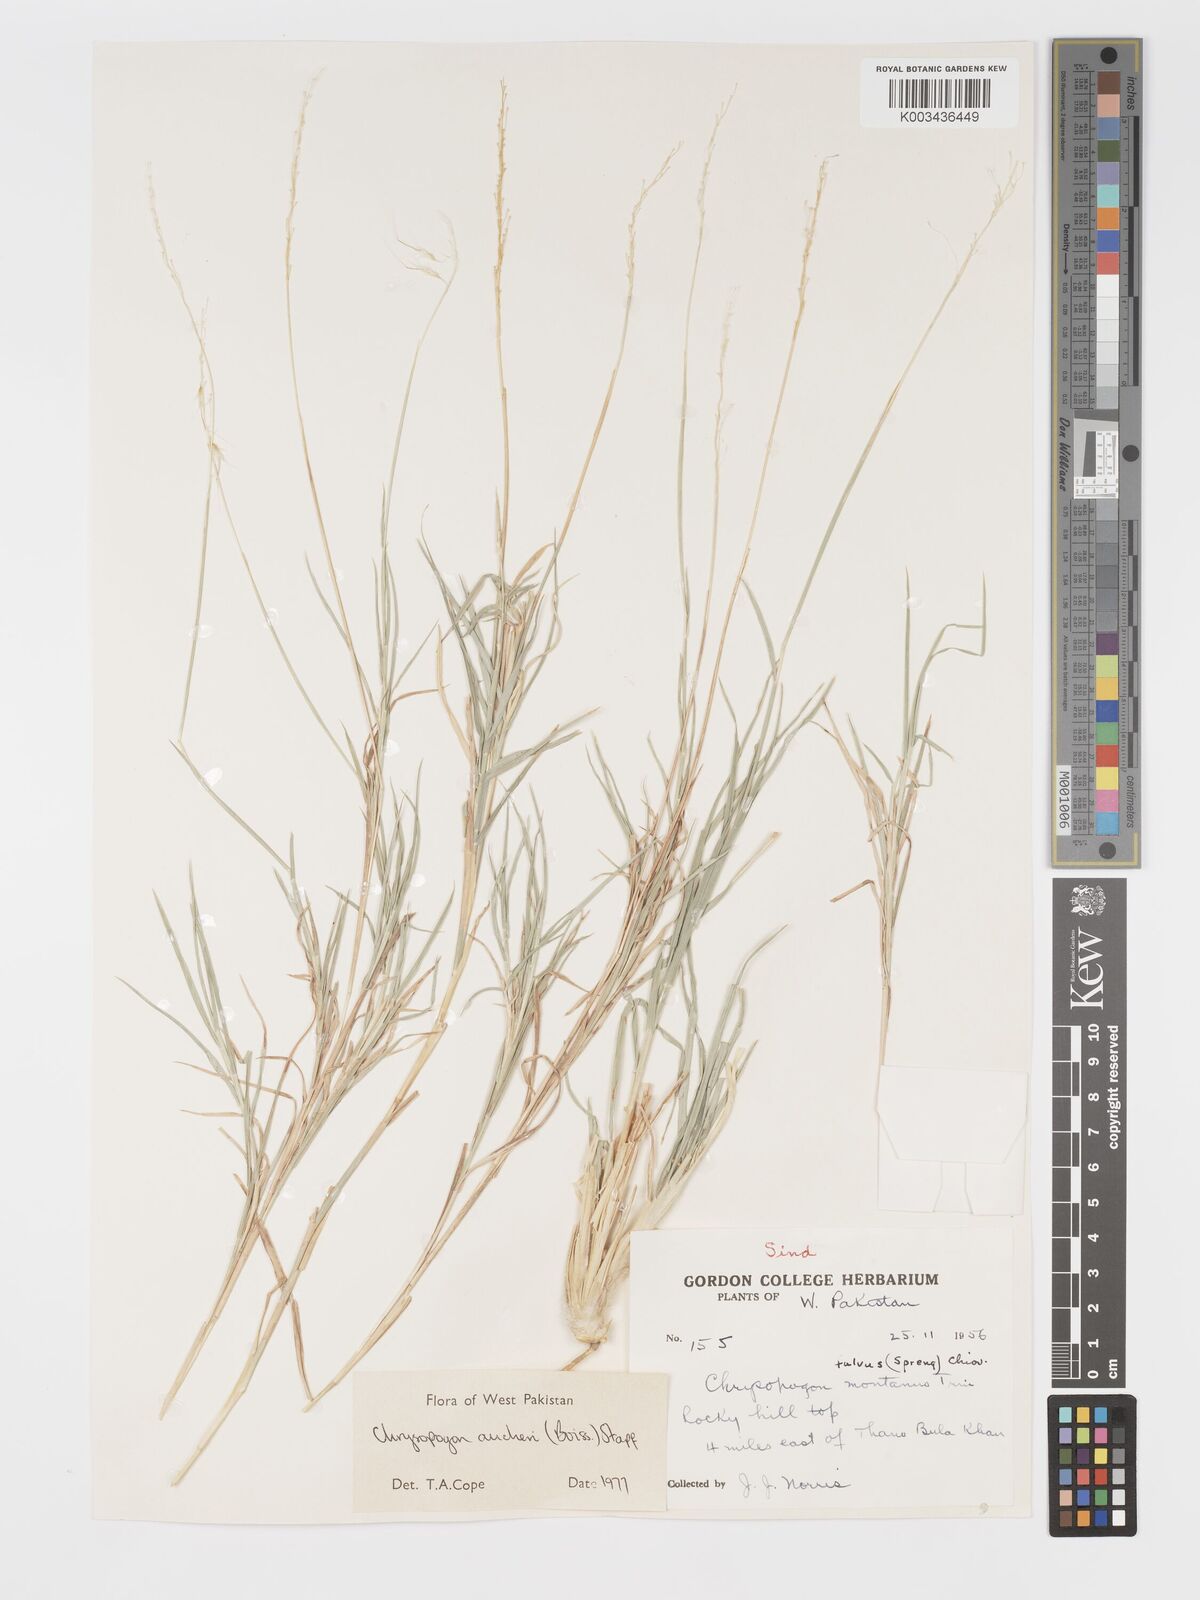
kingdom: Plantae
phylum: Tracheophyta
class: Liliopsida
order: Poales
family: Poaceae
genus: Chrysopogon
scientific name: Chrysopogon aucheri
